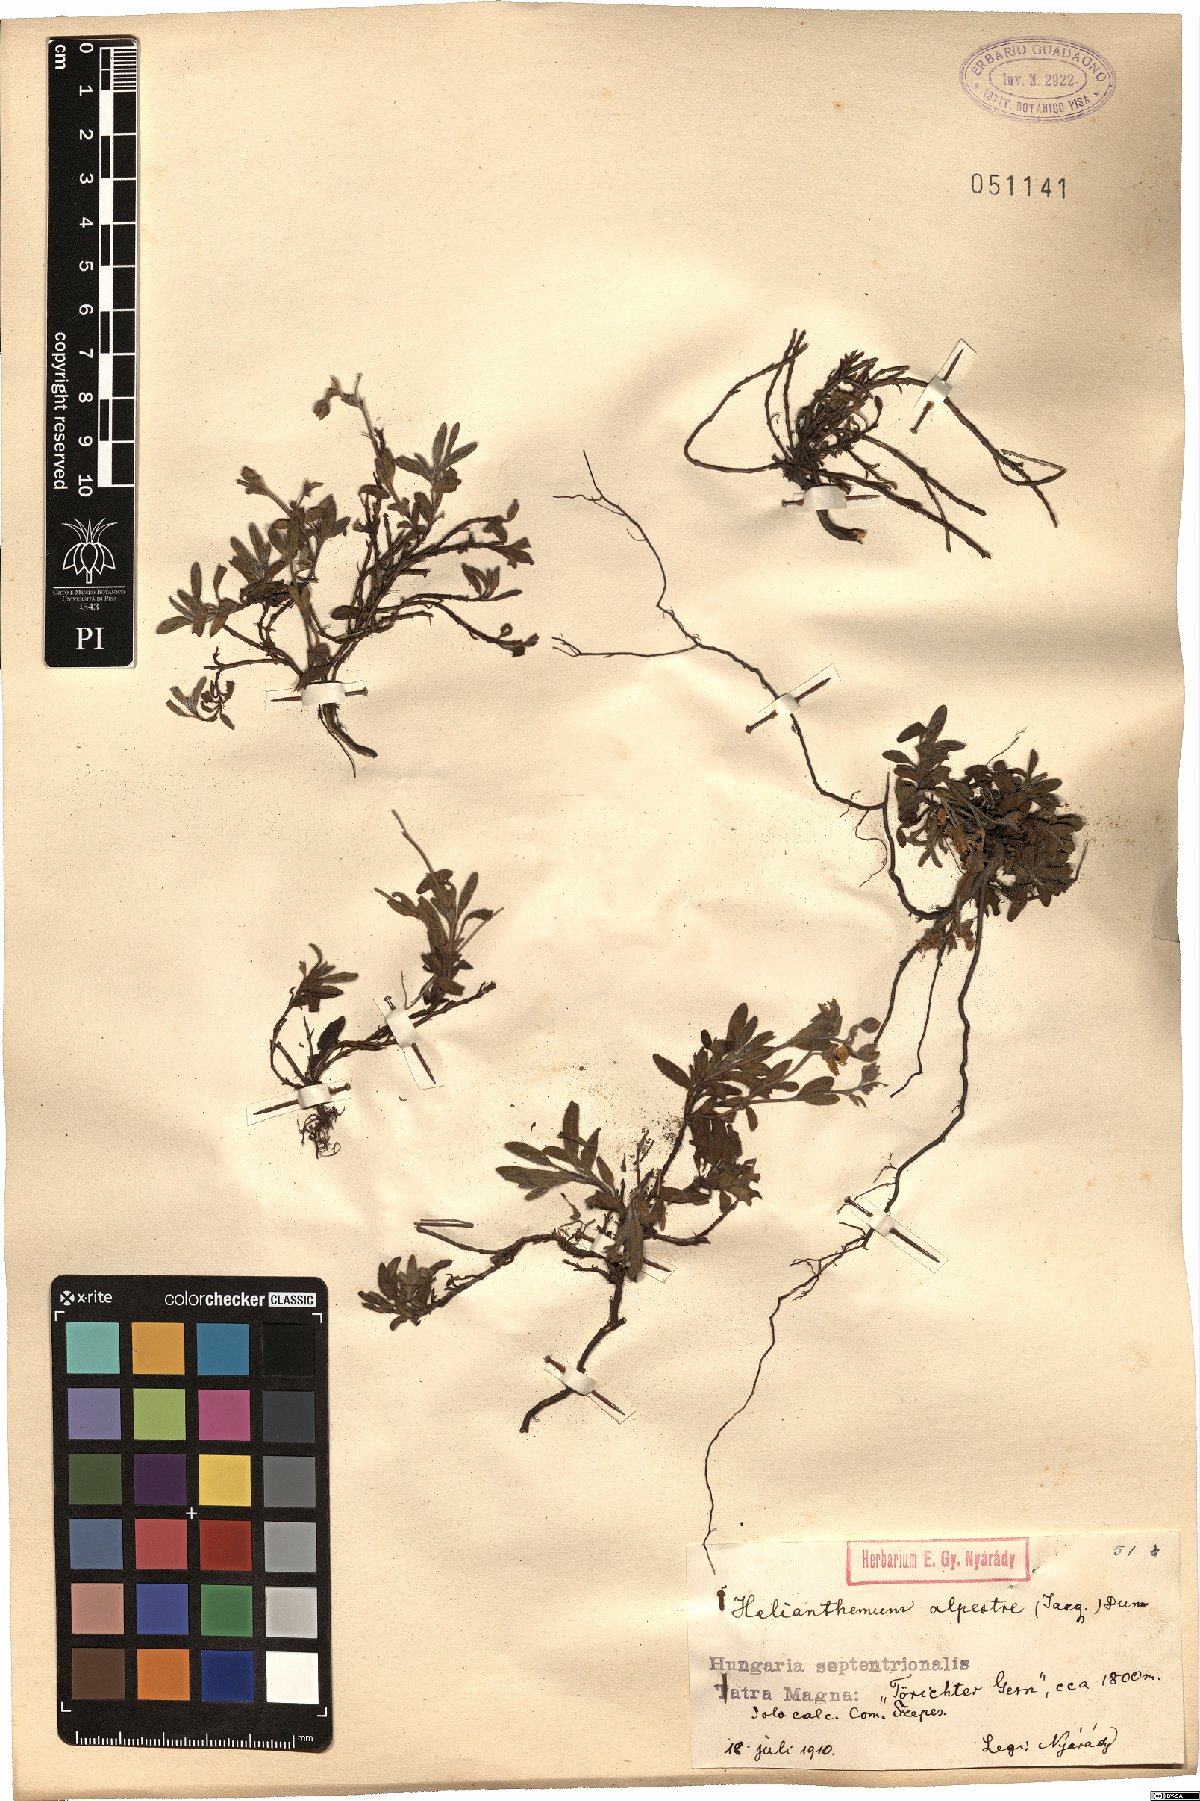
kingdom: Plantae
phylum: Tracheophyta
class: Magnoliopsida
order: Malvales
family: Cistaceae
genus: Helianthemum
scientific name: Helianthemum alpestre
